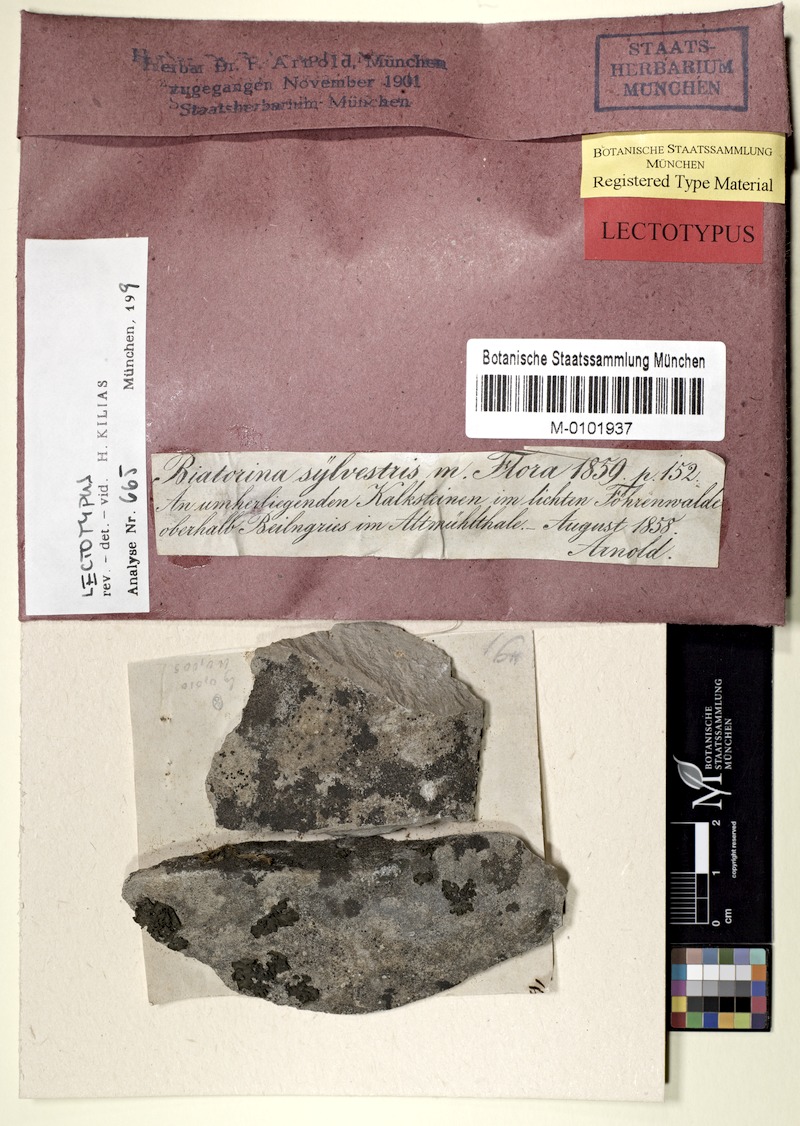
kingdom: Fungi
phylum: Ascomycota
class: Lecanoromycetes
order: Lecanorales
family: Ramalinaceae
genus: Lecania
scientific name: Lecania sylvestris
